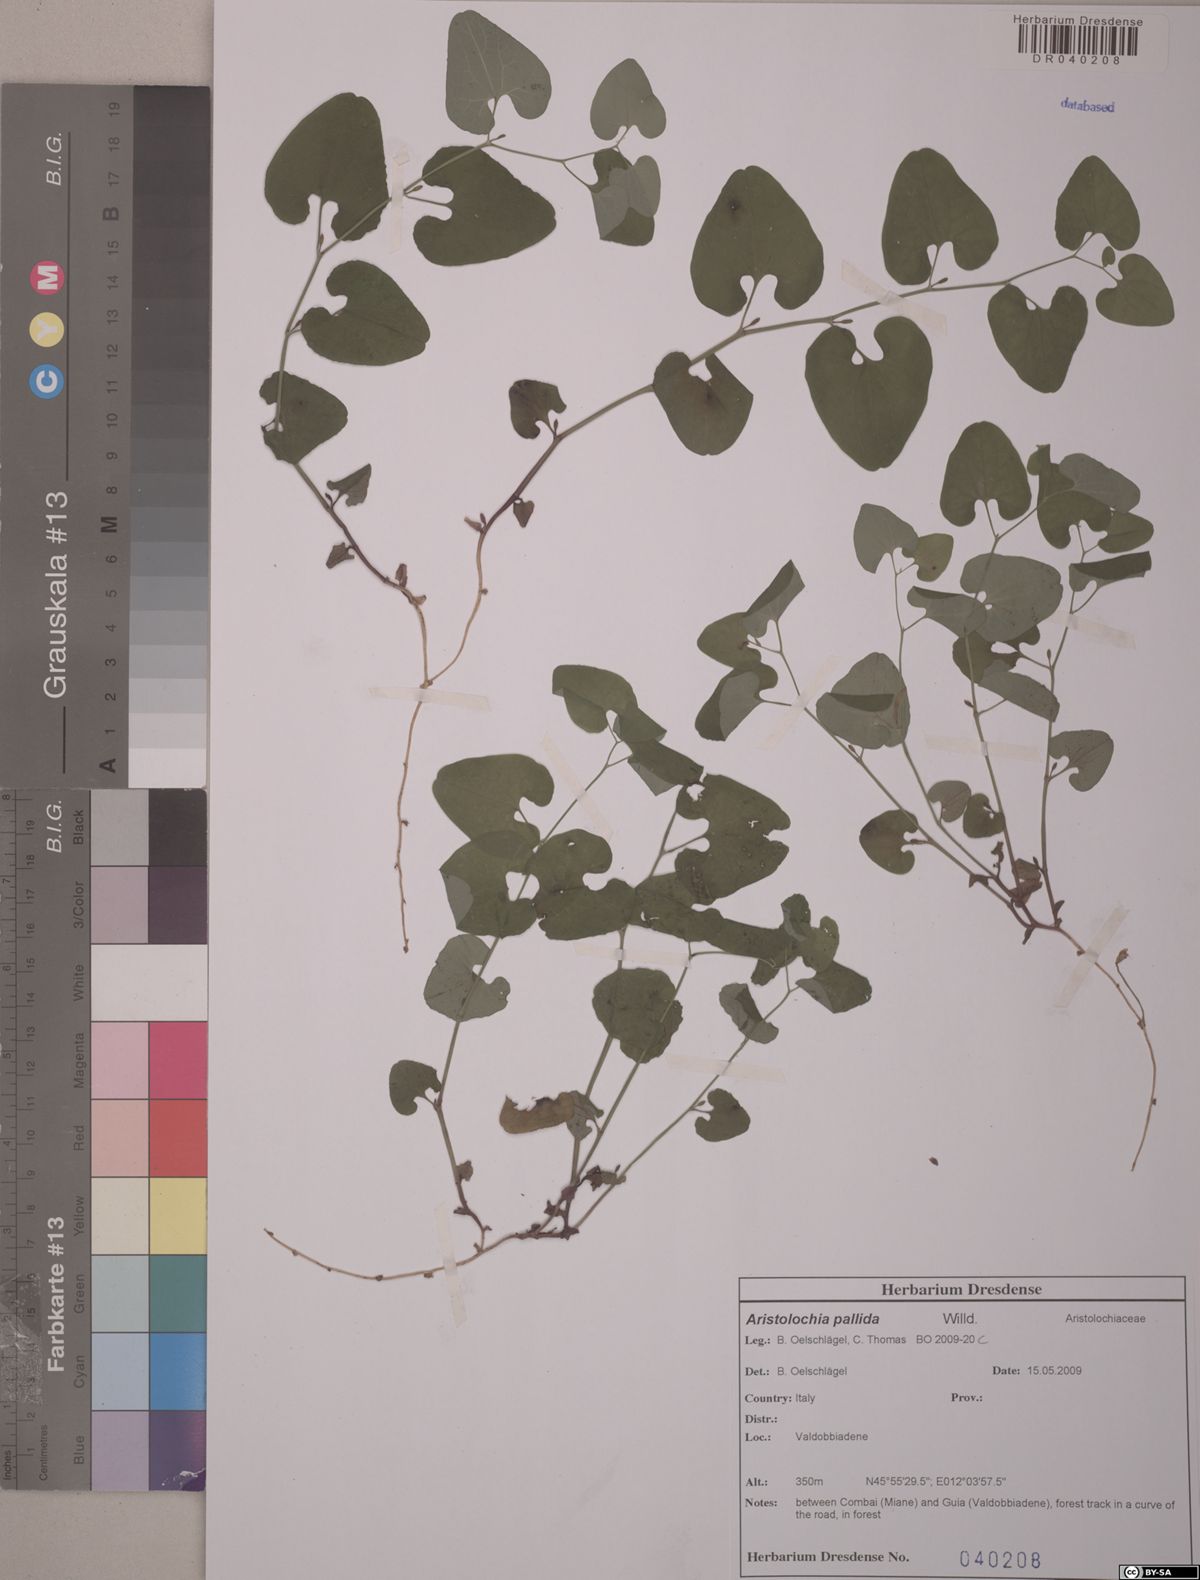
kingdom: Plantae
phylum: Tracheophyta
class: Magnoliopsida
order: Piperales
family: Aristolochiaceae
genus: Aristolochia
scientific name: Aristolochia pallida
